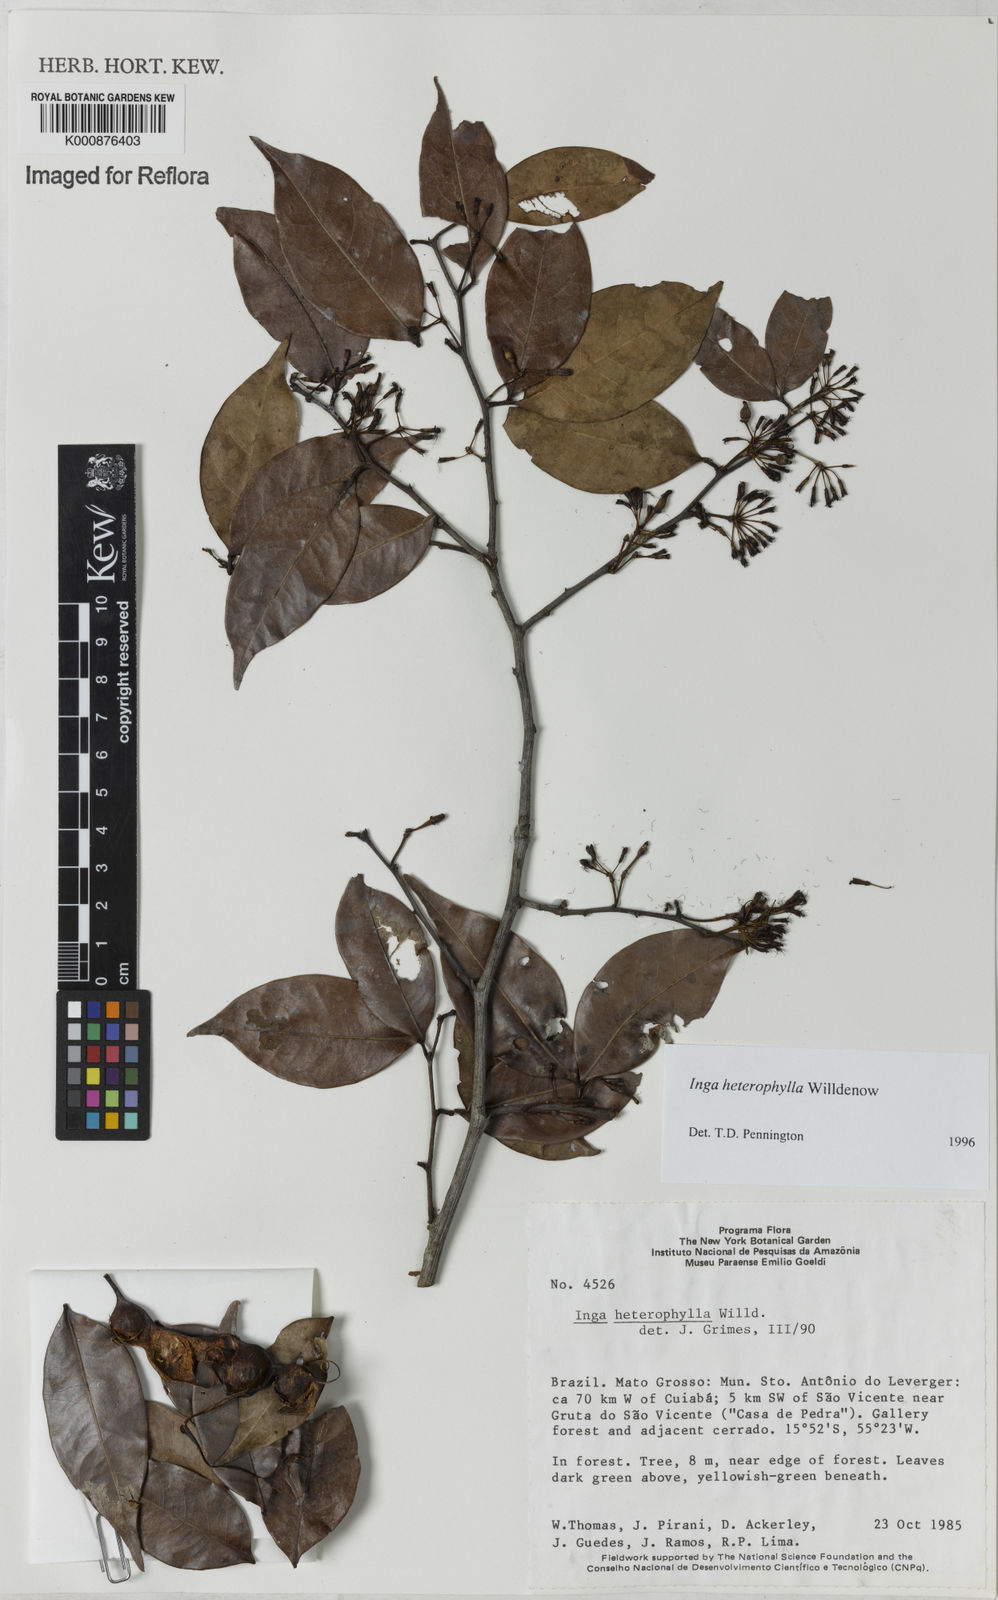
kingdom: Plantae
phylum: Tracheophyta
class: Magnoliopsida
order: Fabales
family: Fabaceae
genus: Inga
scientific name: Inga heterophylla
